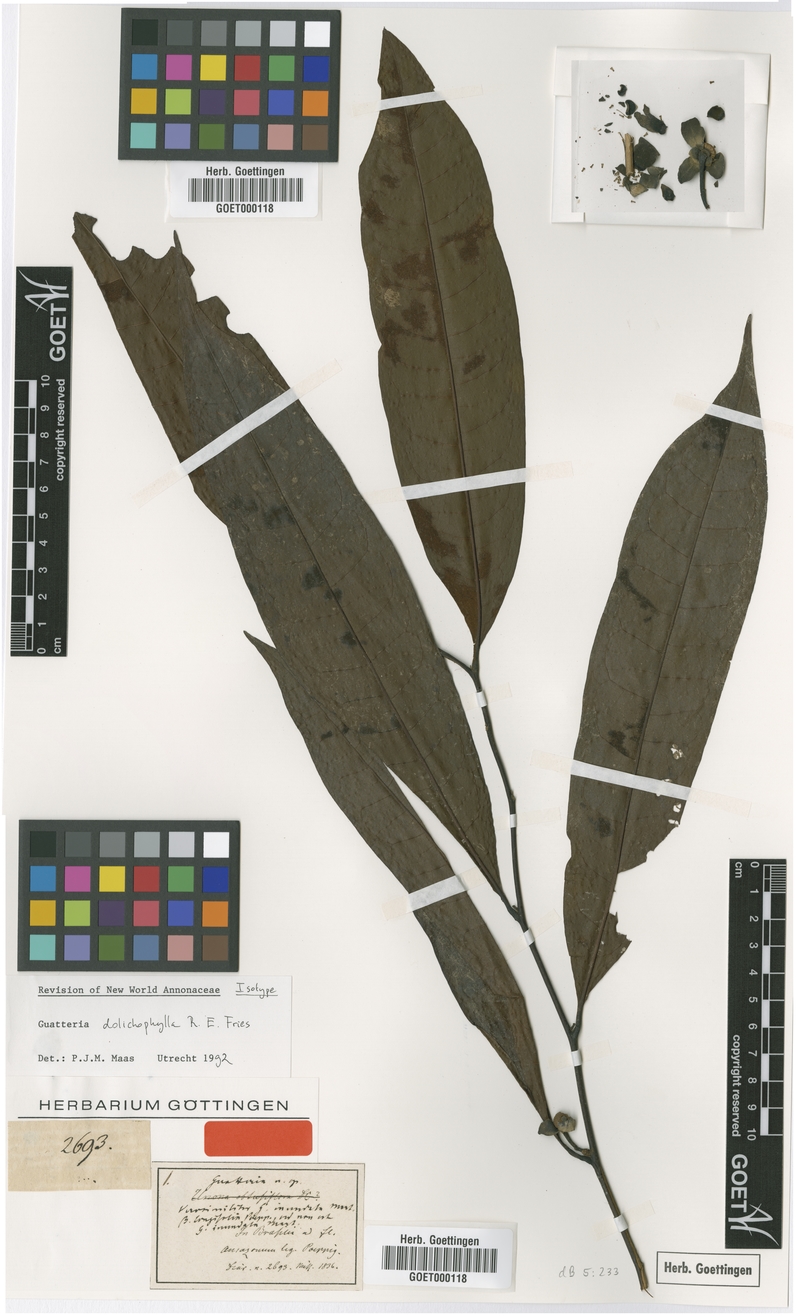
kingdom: Plantae
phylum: Tracheophyta
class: Magnoliopsida
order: Magnoliales
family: Annonaceae
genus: Guatteria
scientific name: Guatteria dolichophylla
